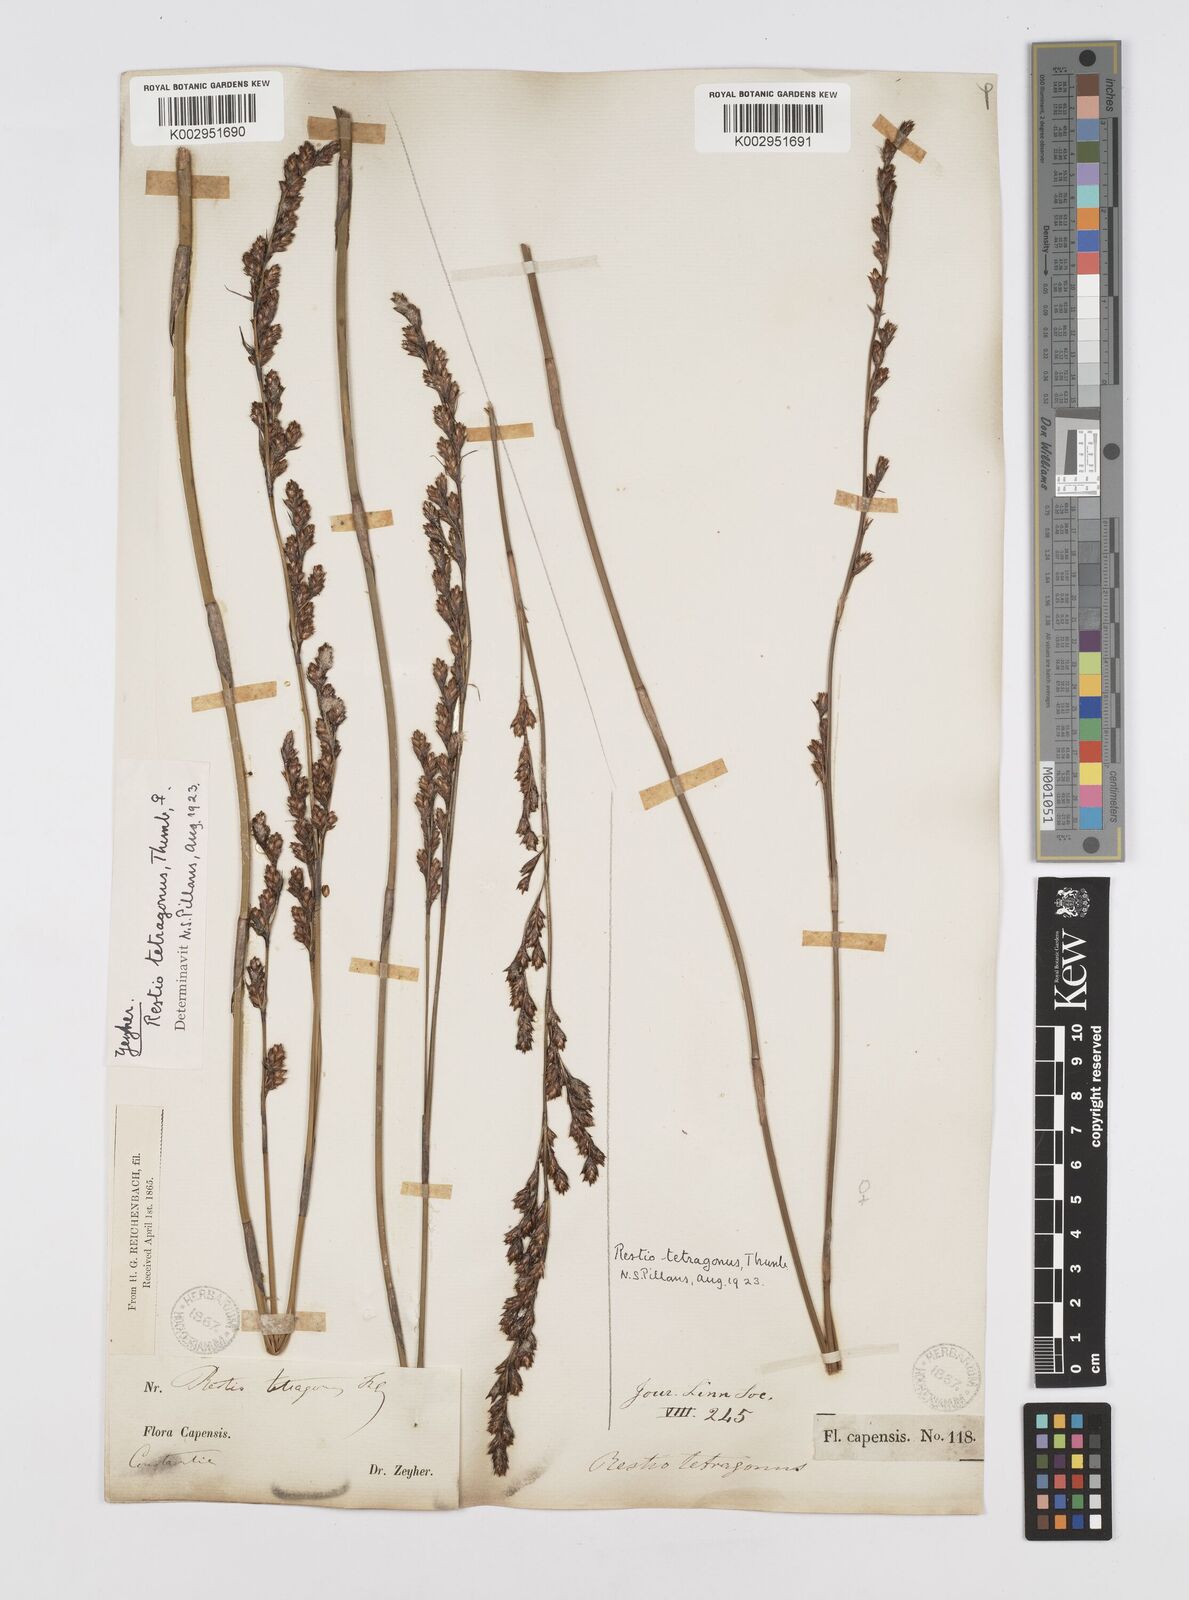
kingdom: Plantae
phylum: Tracheophyta
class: Liliopsida
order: Poales
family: Restionaceae
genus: Restio
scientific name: Restio tetragonus
